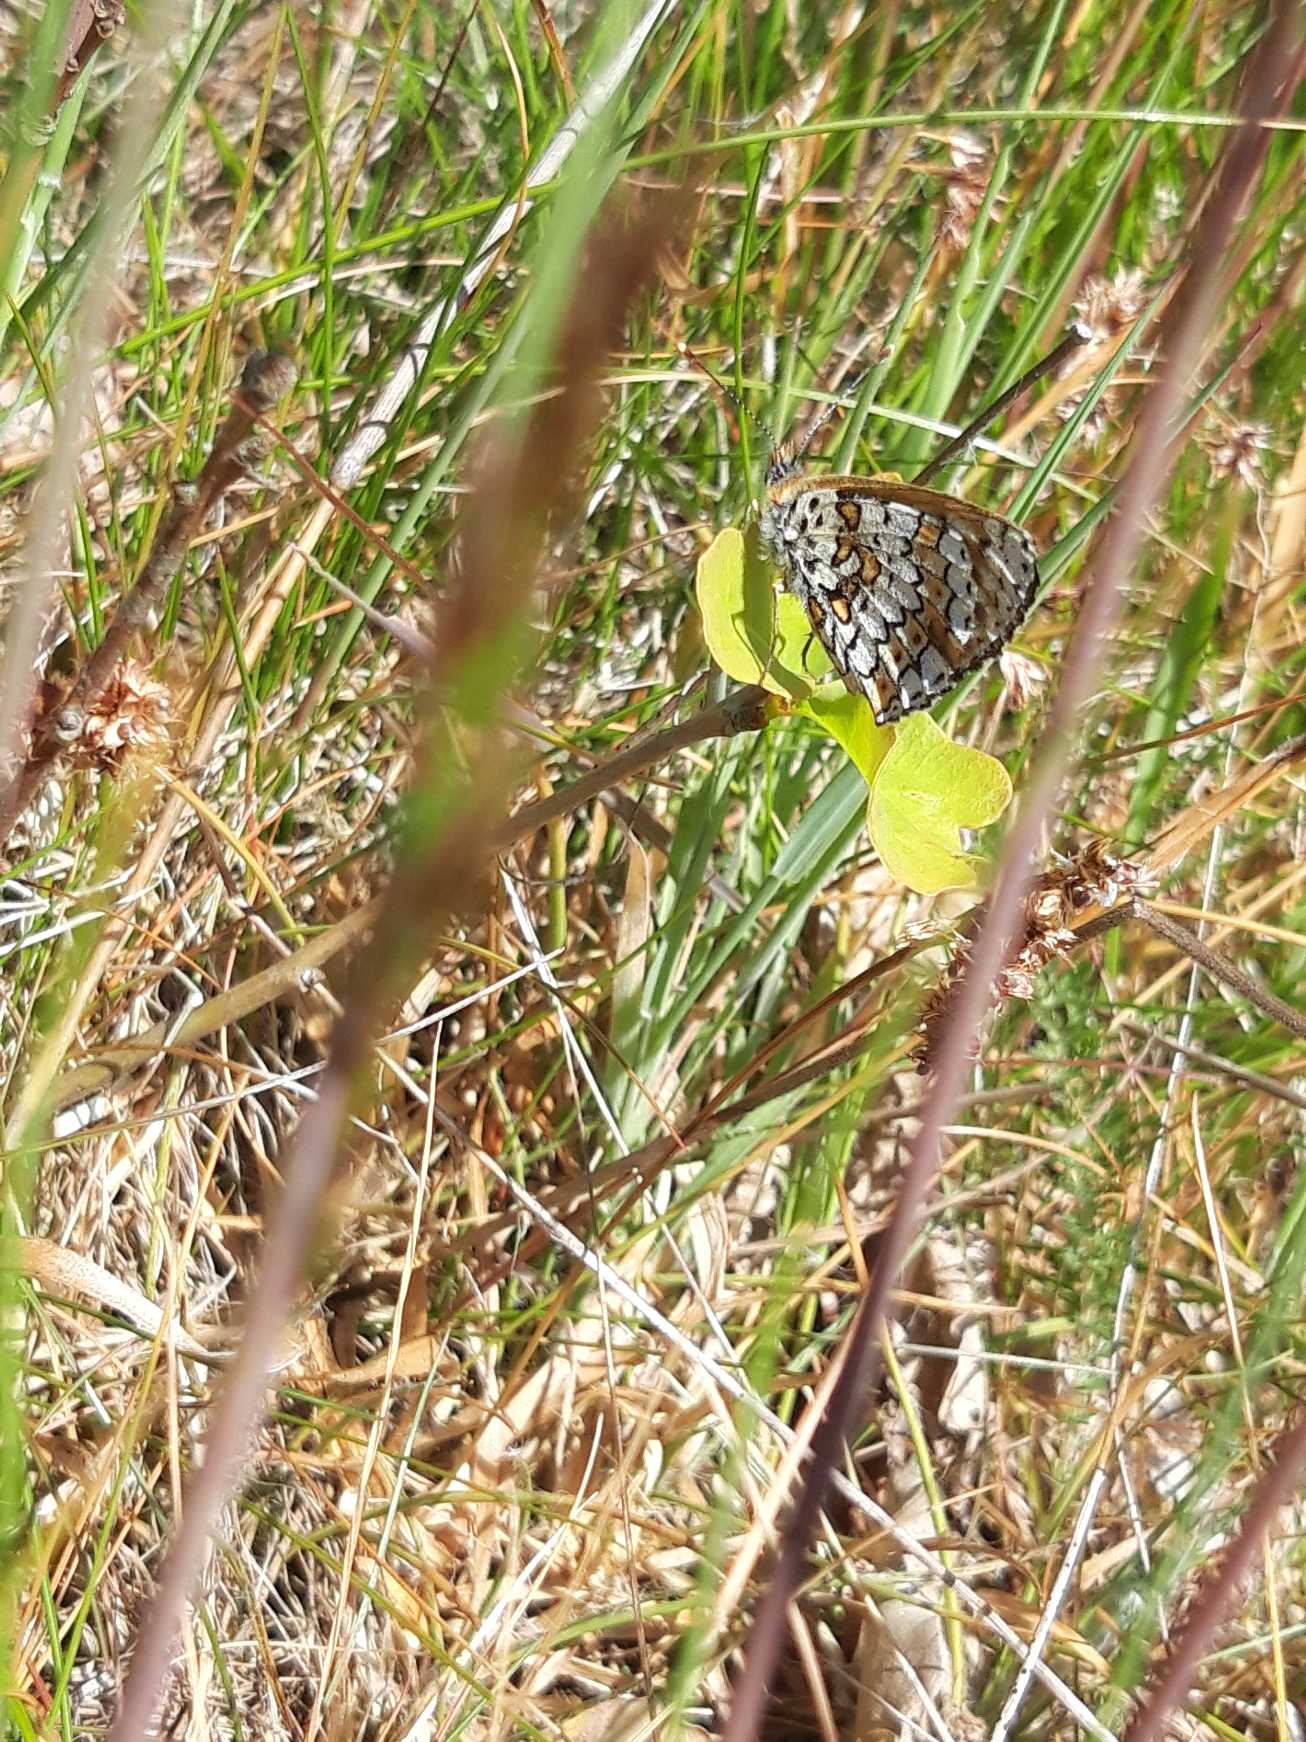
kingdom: Animalia
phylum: Arthropoda
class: Insecta
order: Lepidoptera
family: Nymphalidae
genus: Melitaea
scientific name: Melitaea cinxia
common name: Okkergul pletvinge
